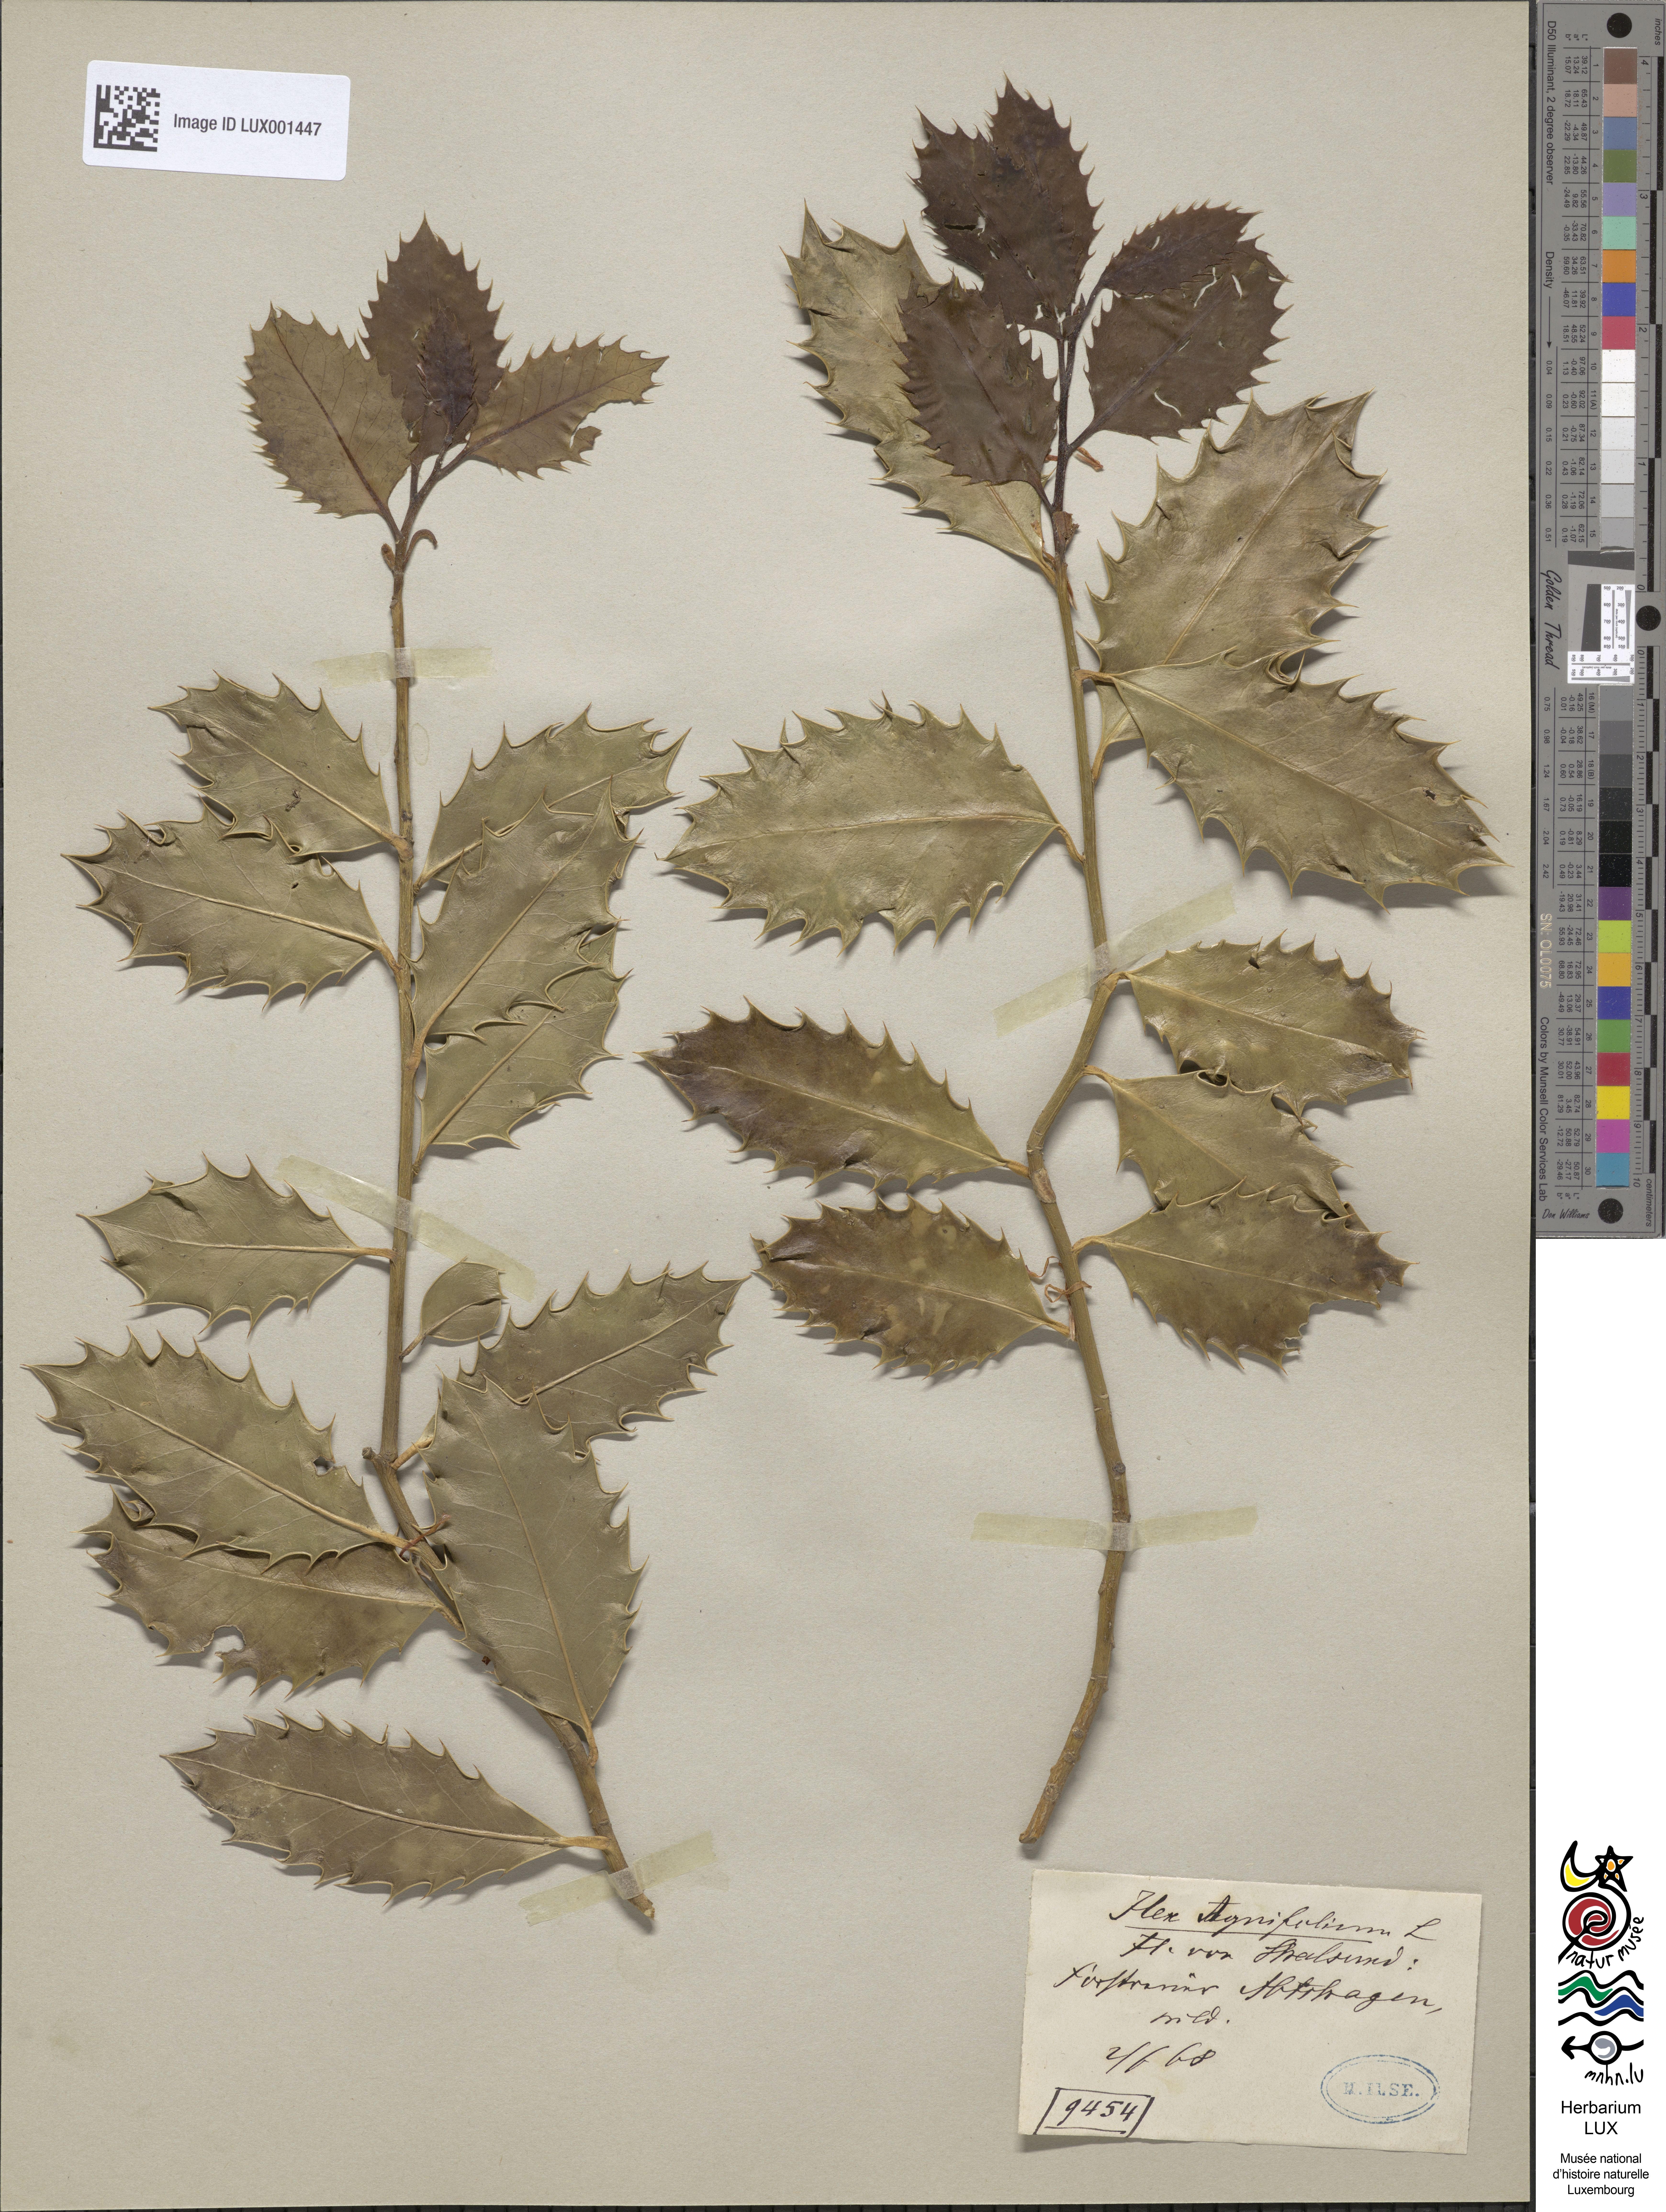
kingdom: Plantae
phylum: Tracheophyta
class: Magnoliopsida
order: Aquifoliales
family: Aquifoliaceae
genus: Ilex
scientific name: Ilex aquifolium
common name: English holly
